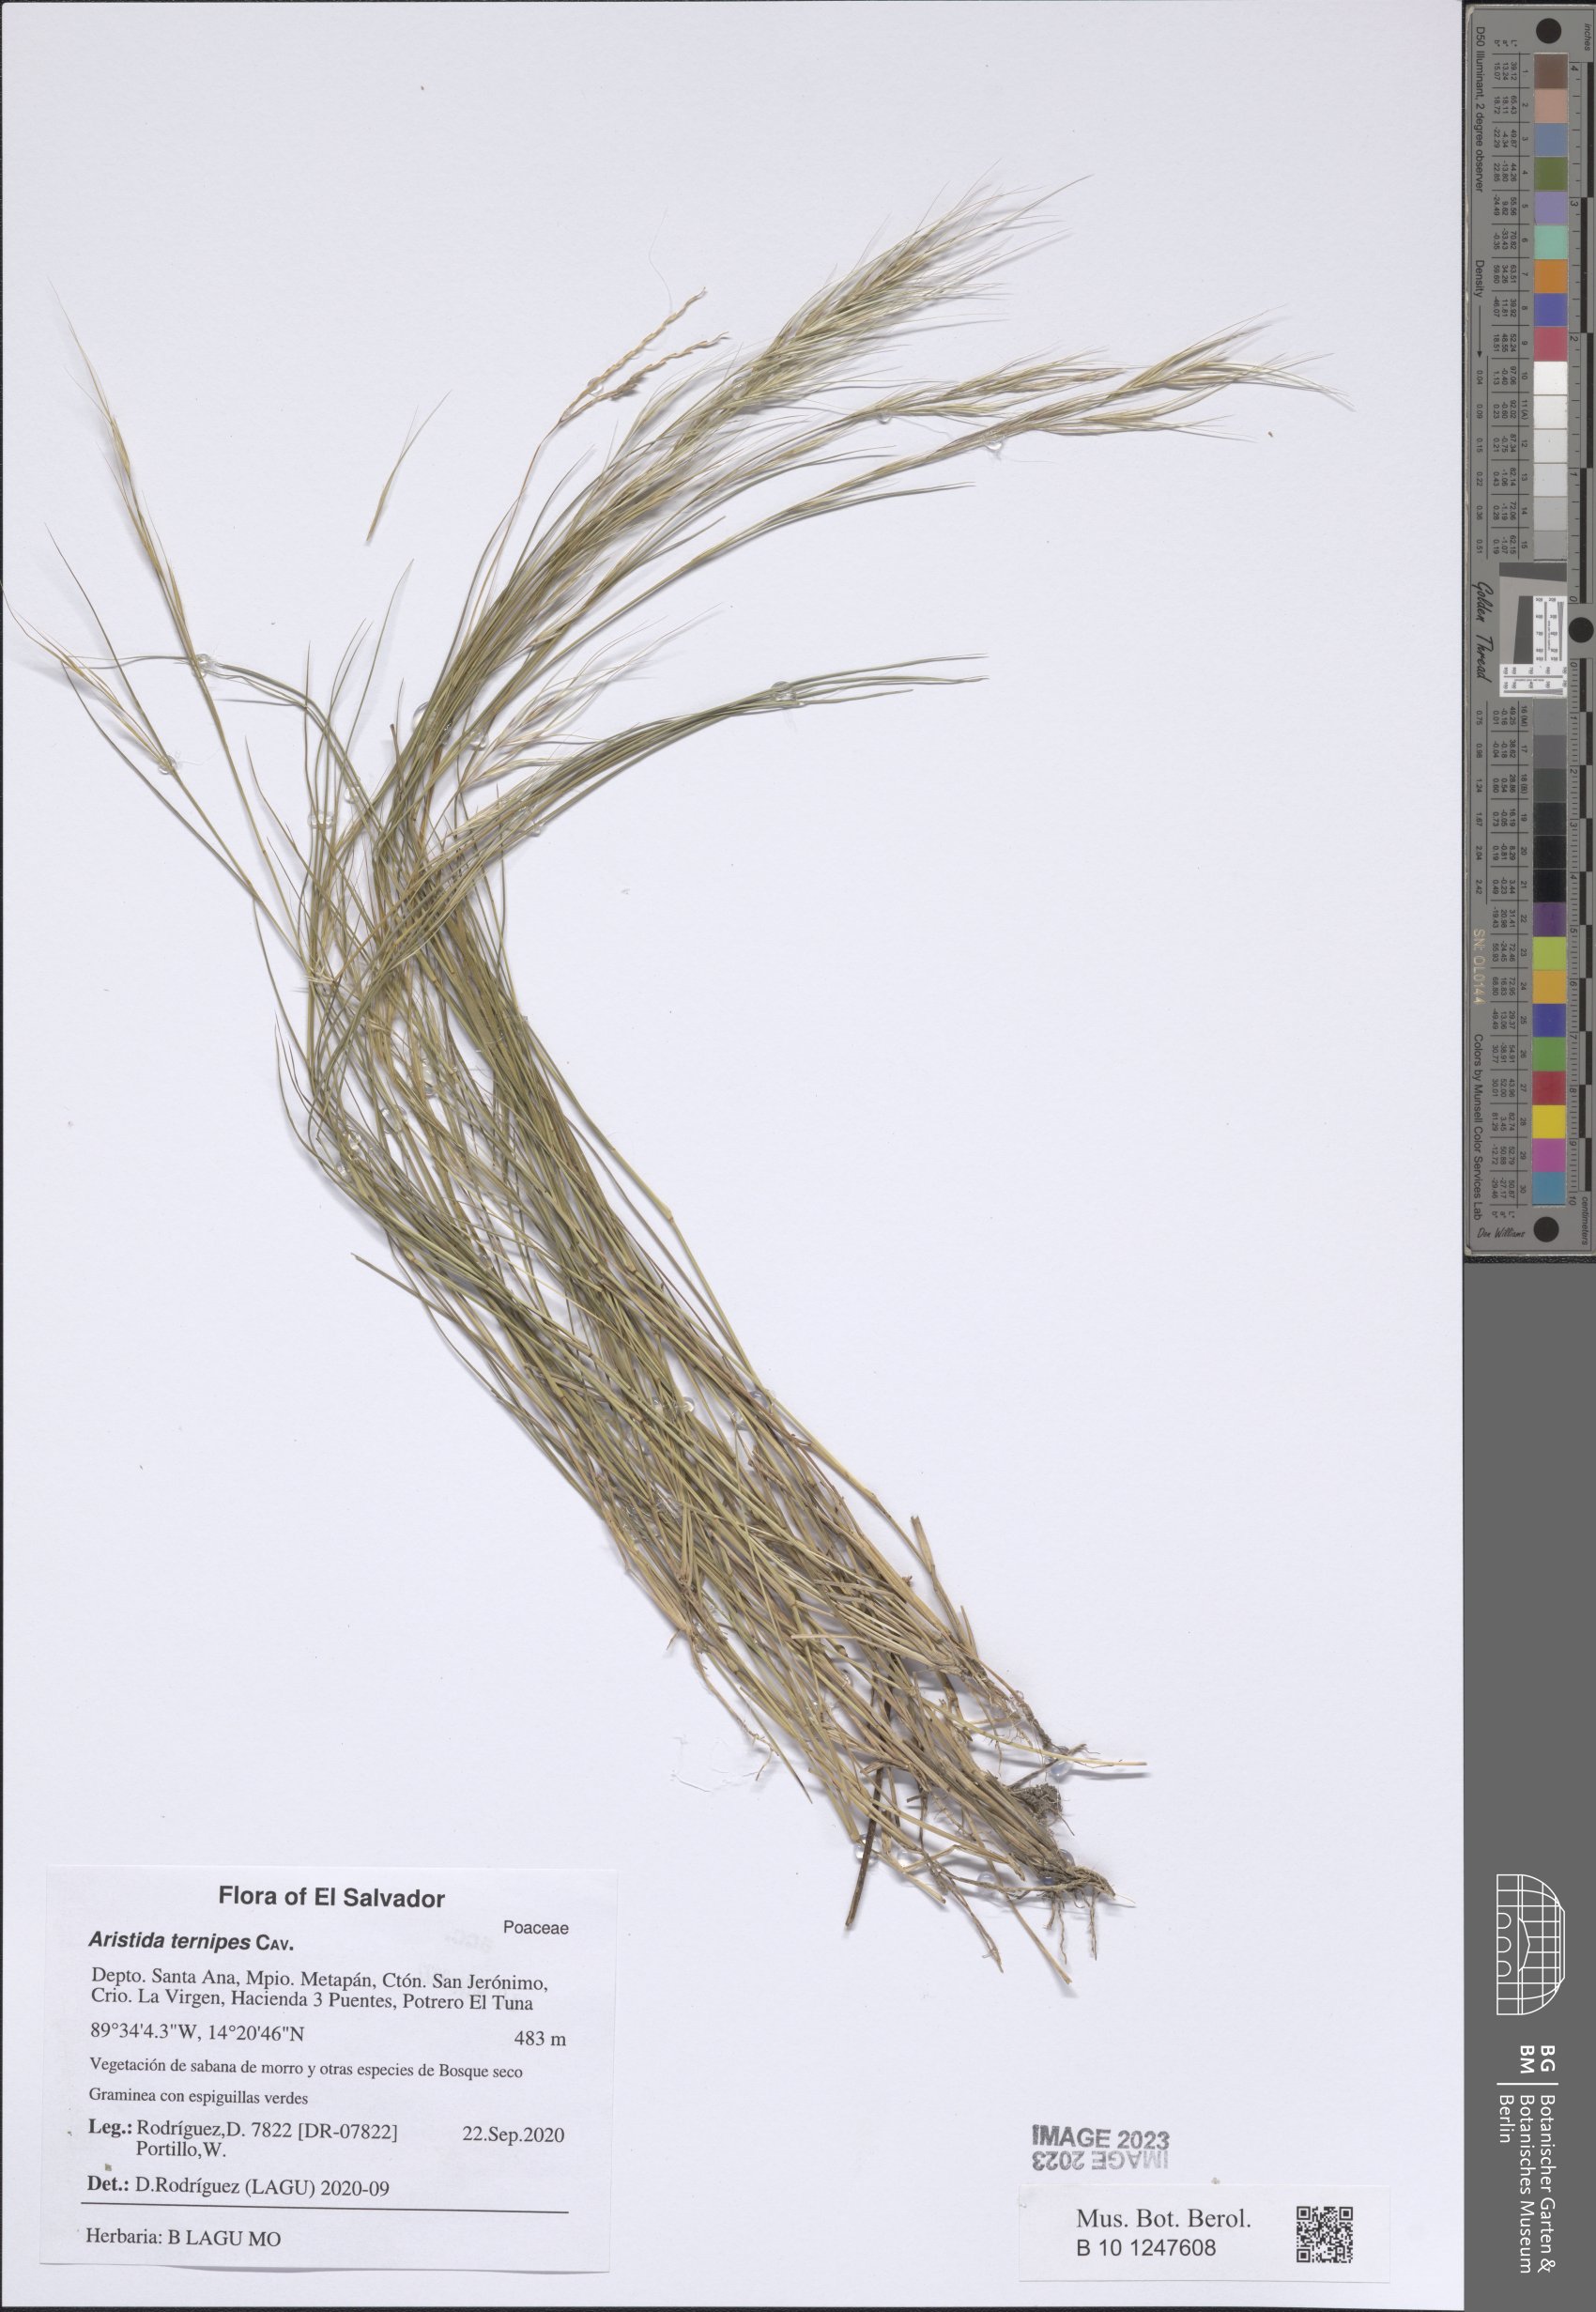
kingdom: Plantae
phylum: Tracheophyta
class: Liliopsida
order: Poales
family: Poaceae
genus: Aristida
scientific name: Aristida ternipes
